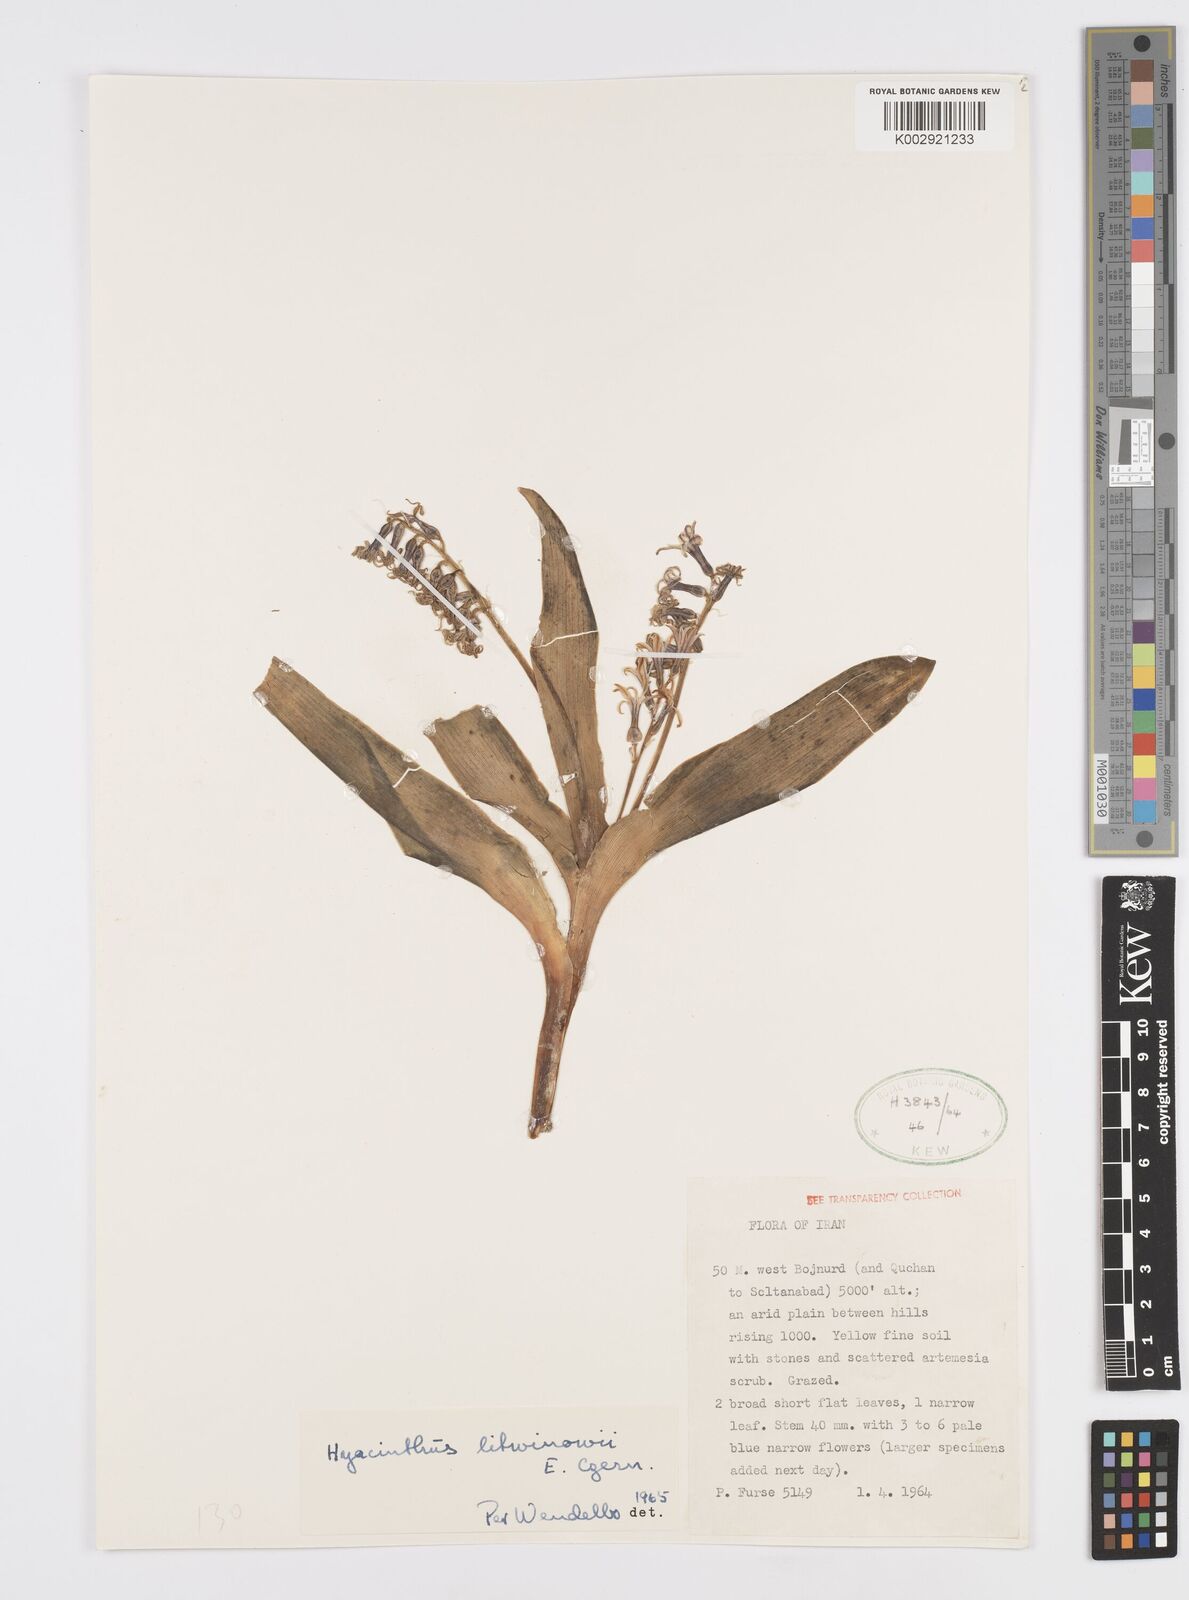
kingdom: Plantae
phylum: Tracheophyta
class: Liliopsida
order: Asparagales
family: Asparagaceae
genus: Hyacinthus
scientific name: Hyacinthus litwinowii
